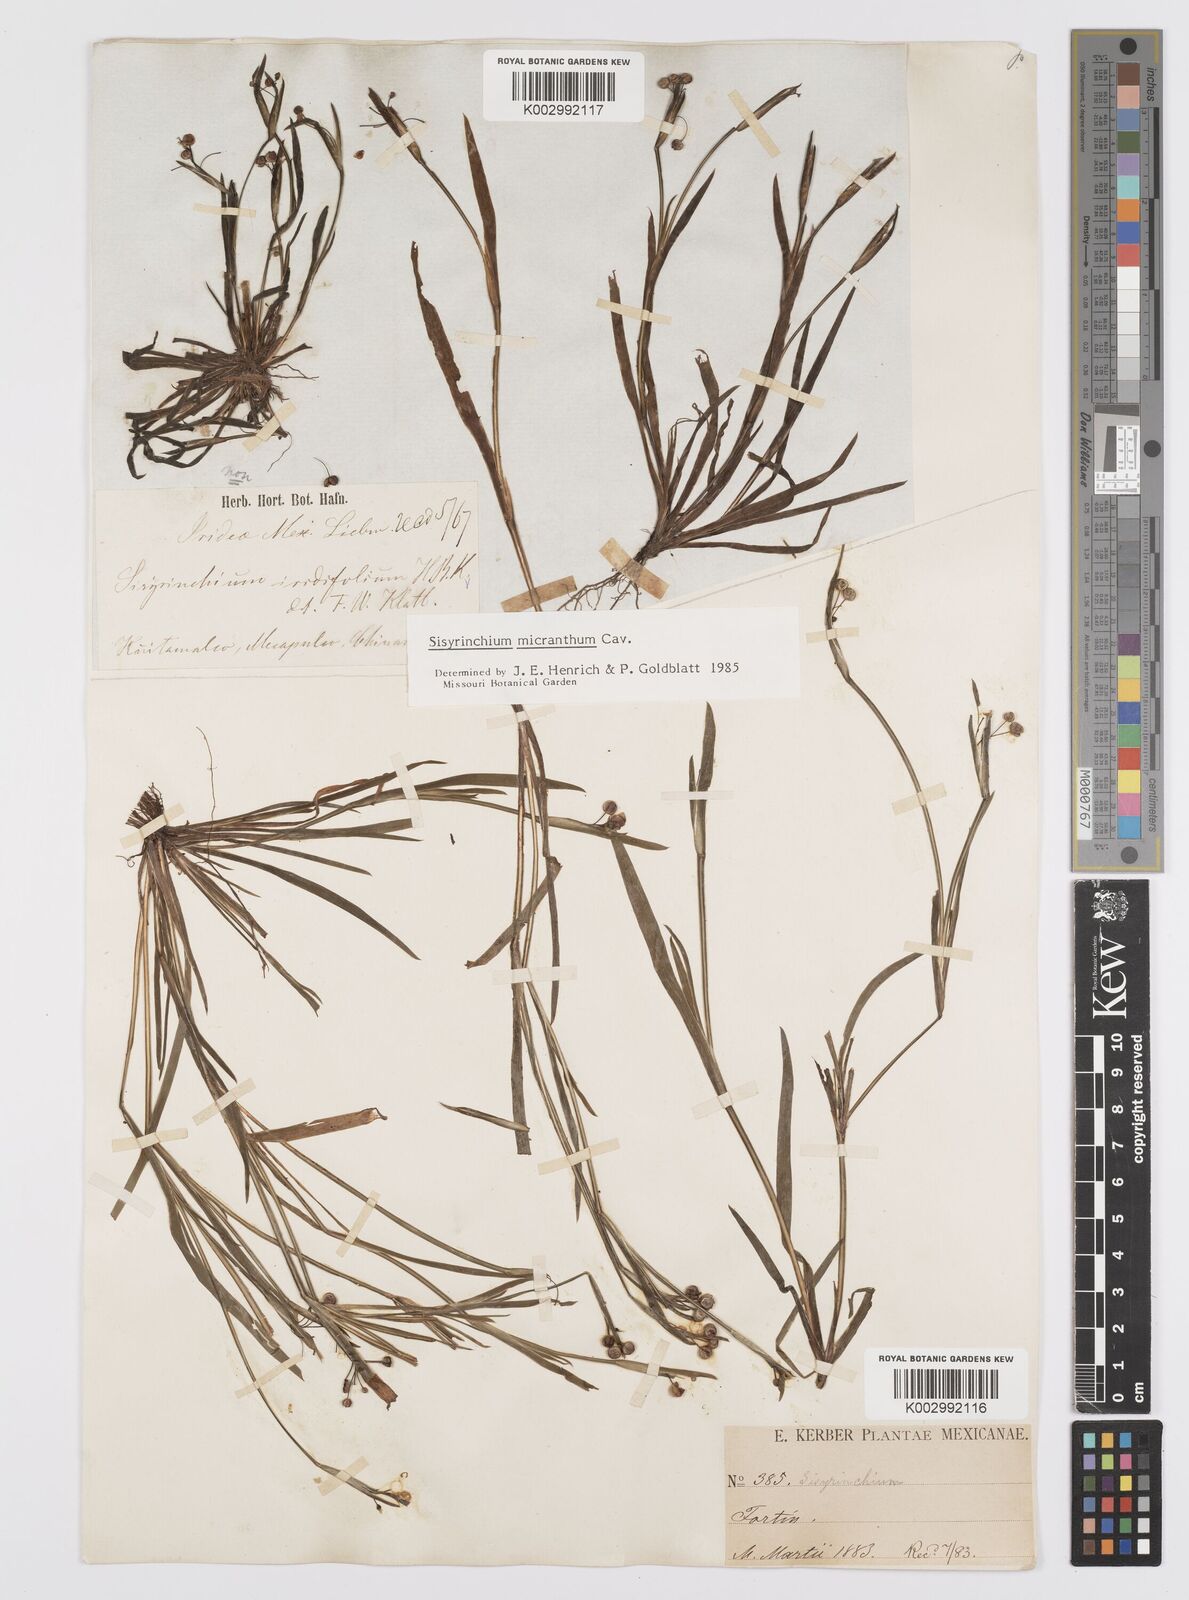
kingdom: Plantae
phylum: Tracheophyta
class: Liliopsida
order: Asparagales
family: Iridaceae
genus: Sisyrinchium
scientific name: Sisyrinchium micranthum
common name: Bermuda pigroot
